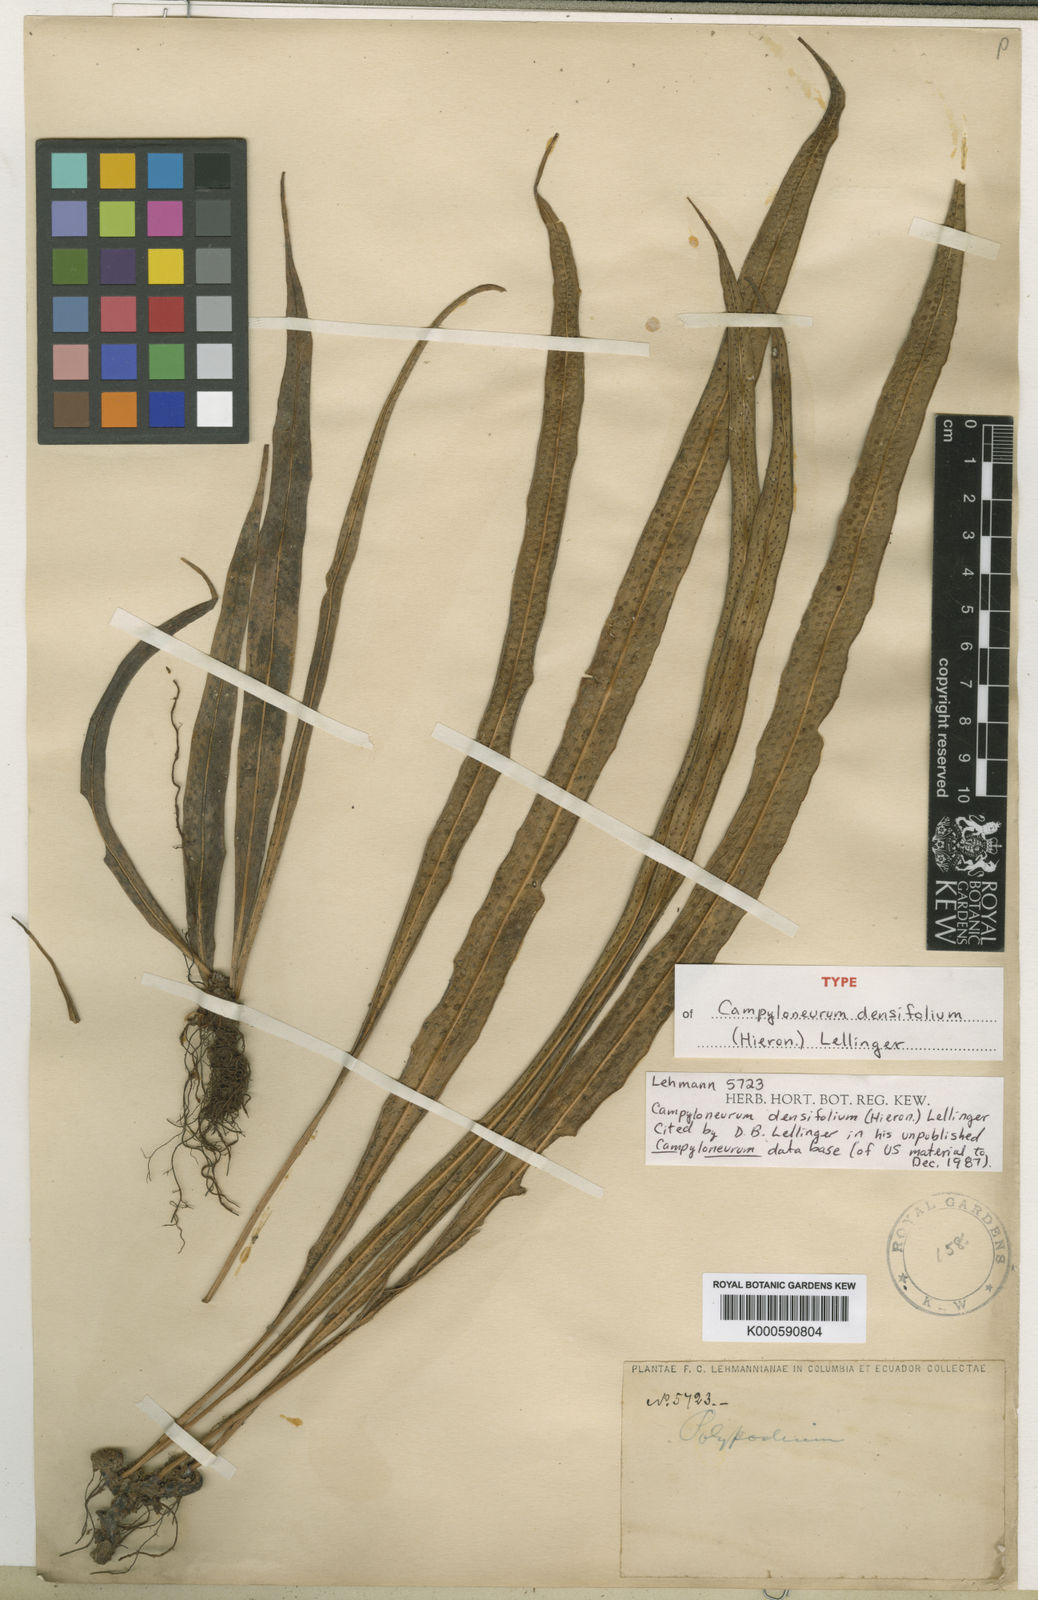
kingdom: Plantae
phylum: Tracheophyta
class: Polypodiopsida
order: Polypodiales
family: Polypodiaceae
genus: Campyloneurum
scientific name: Campyloneurum densifolium
